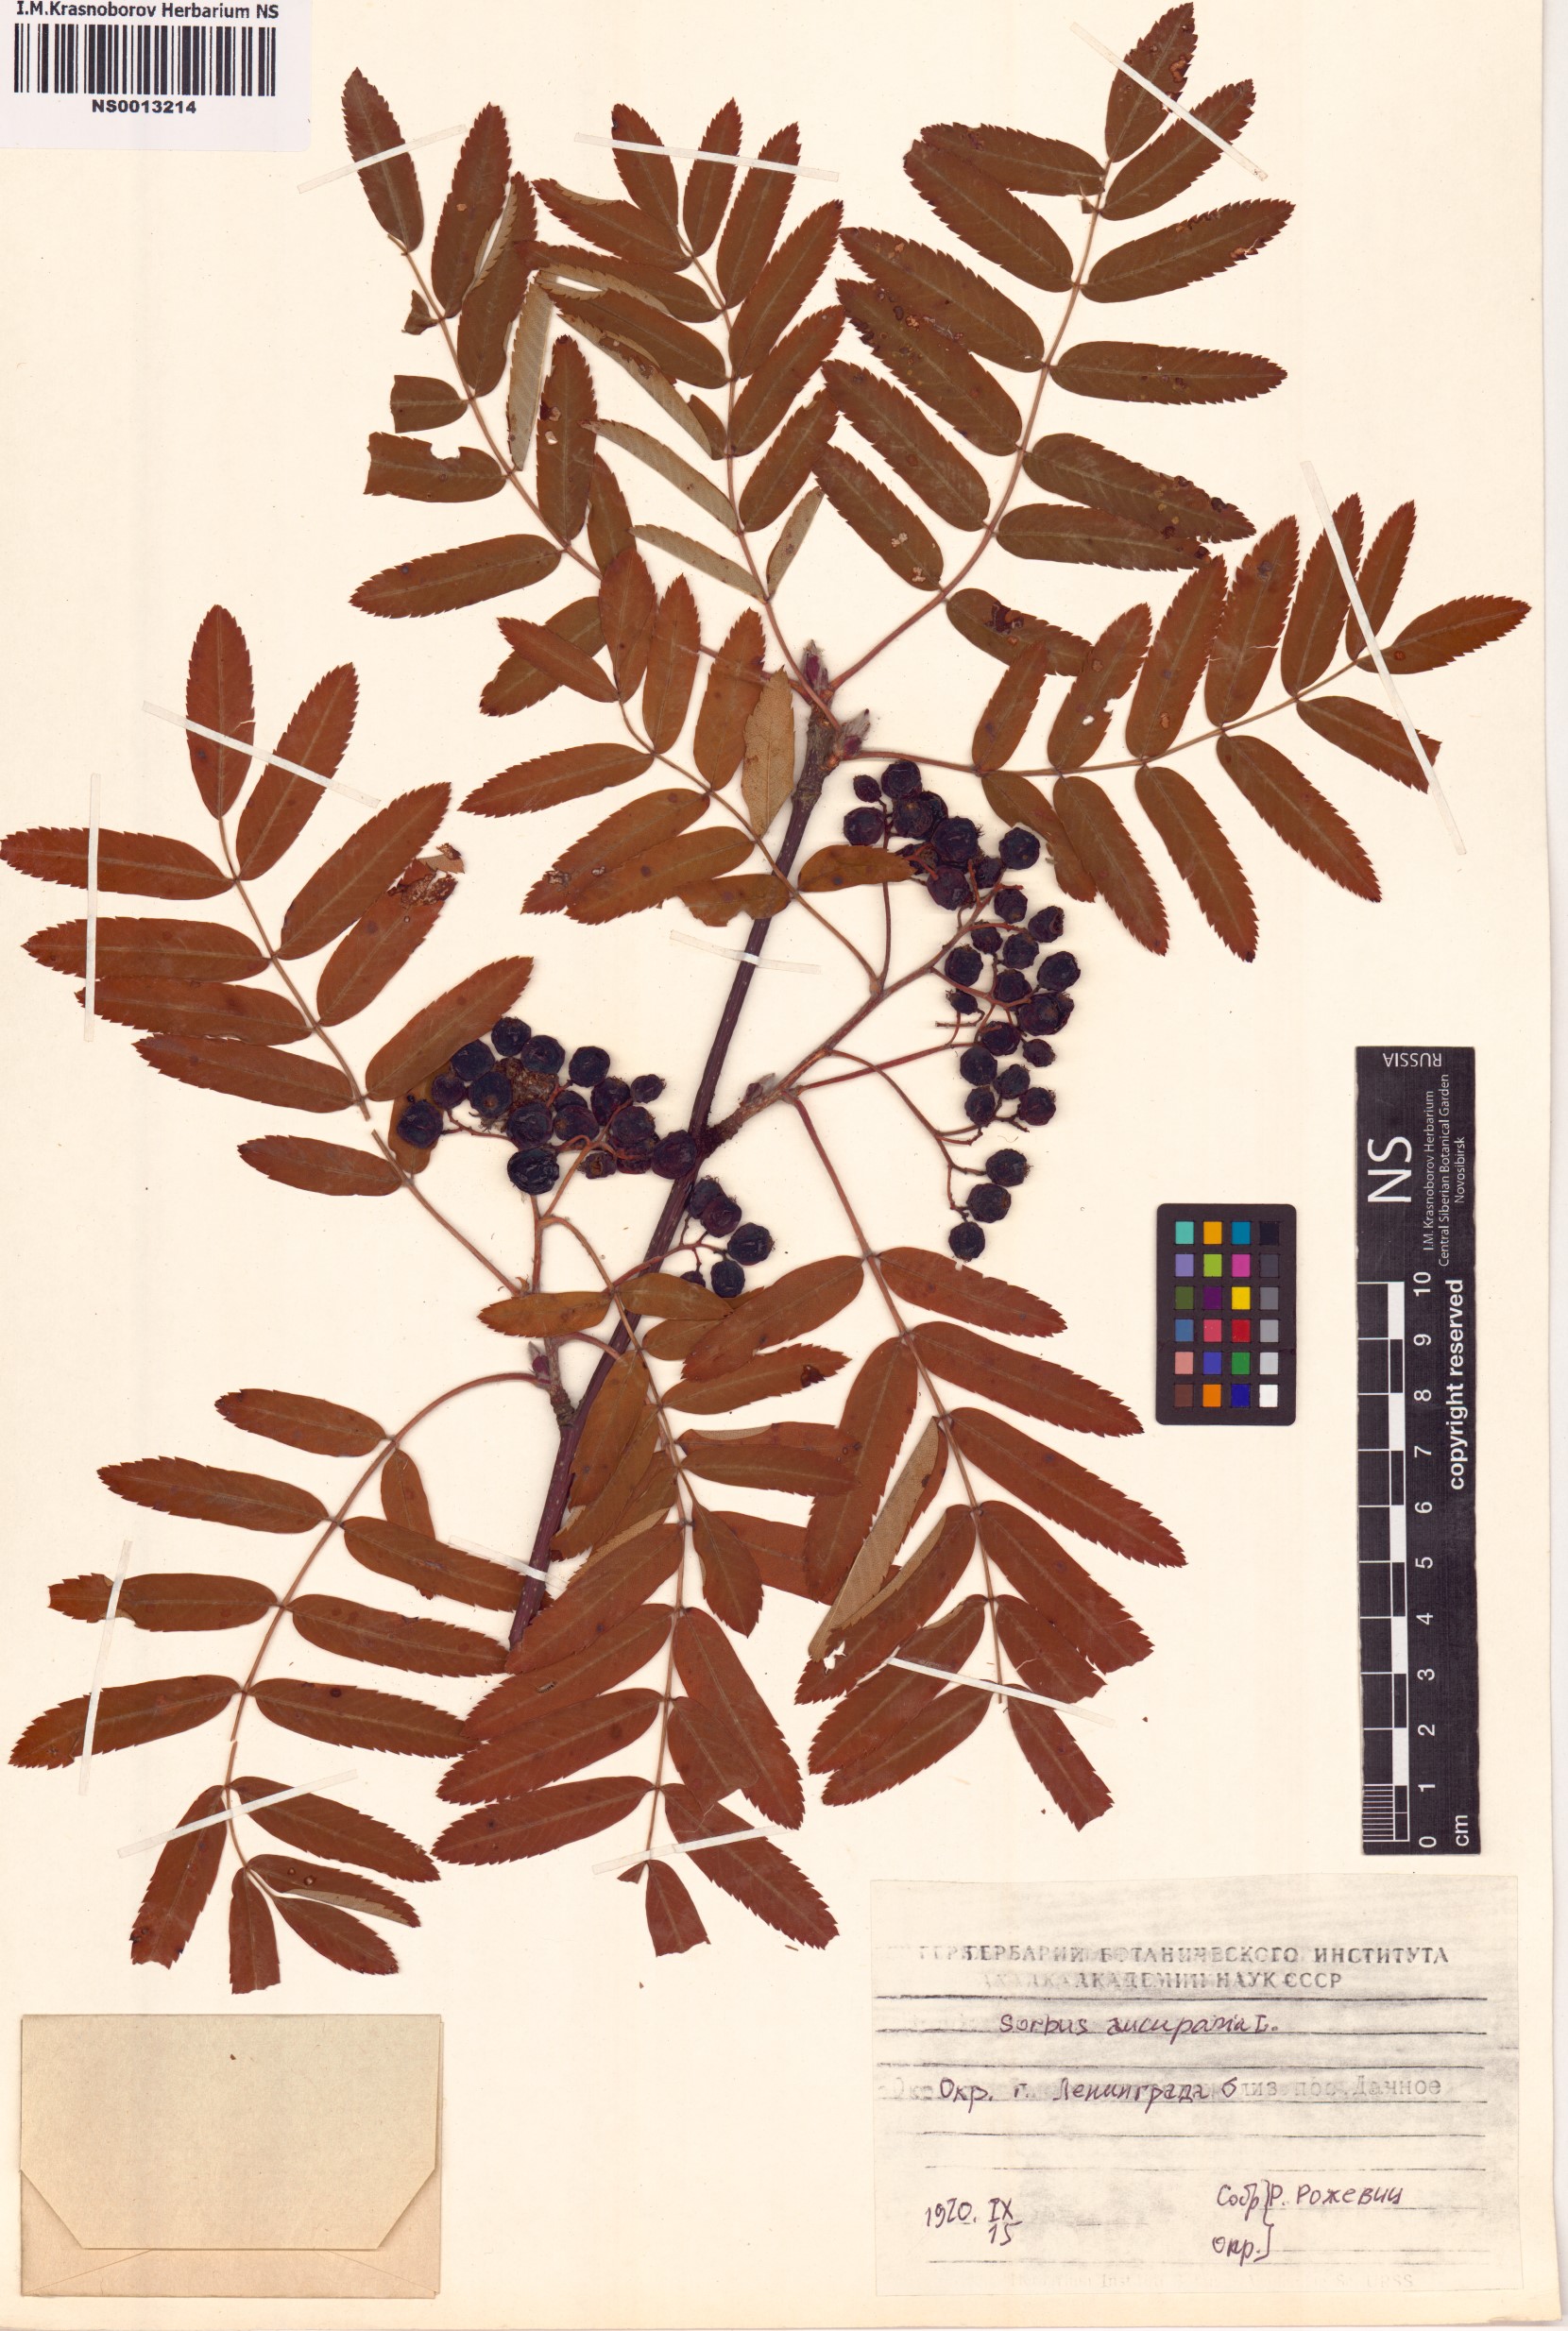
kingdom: Plantae
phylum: Tracheophyta
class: Magnoliopsida
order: Rosales
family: Rosaceae
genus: Sorbus
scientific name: Sorbus aucuparia
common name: Rowan
